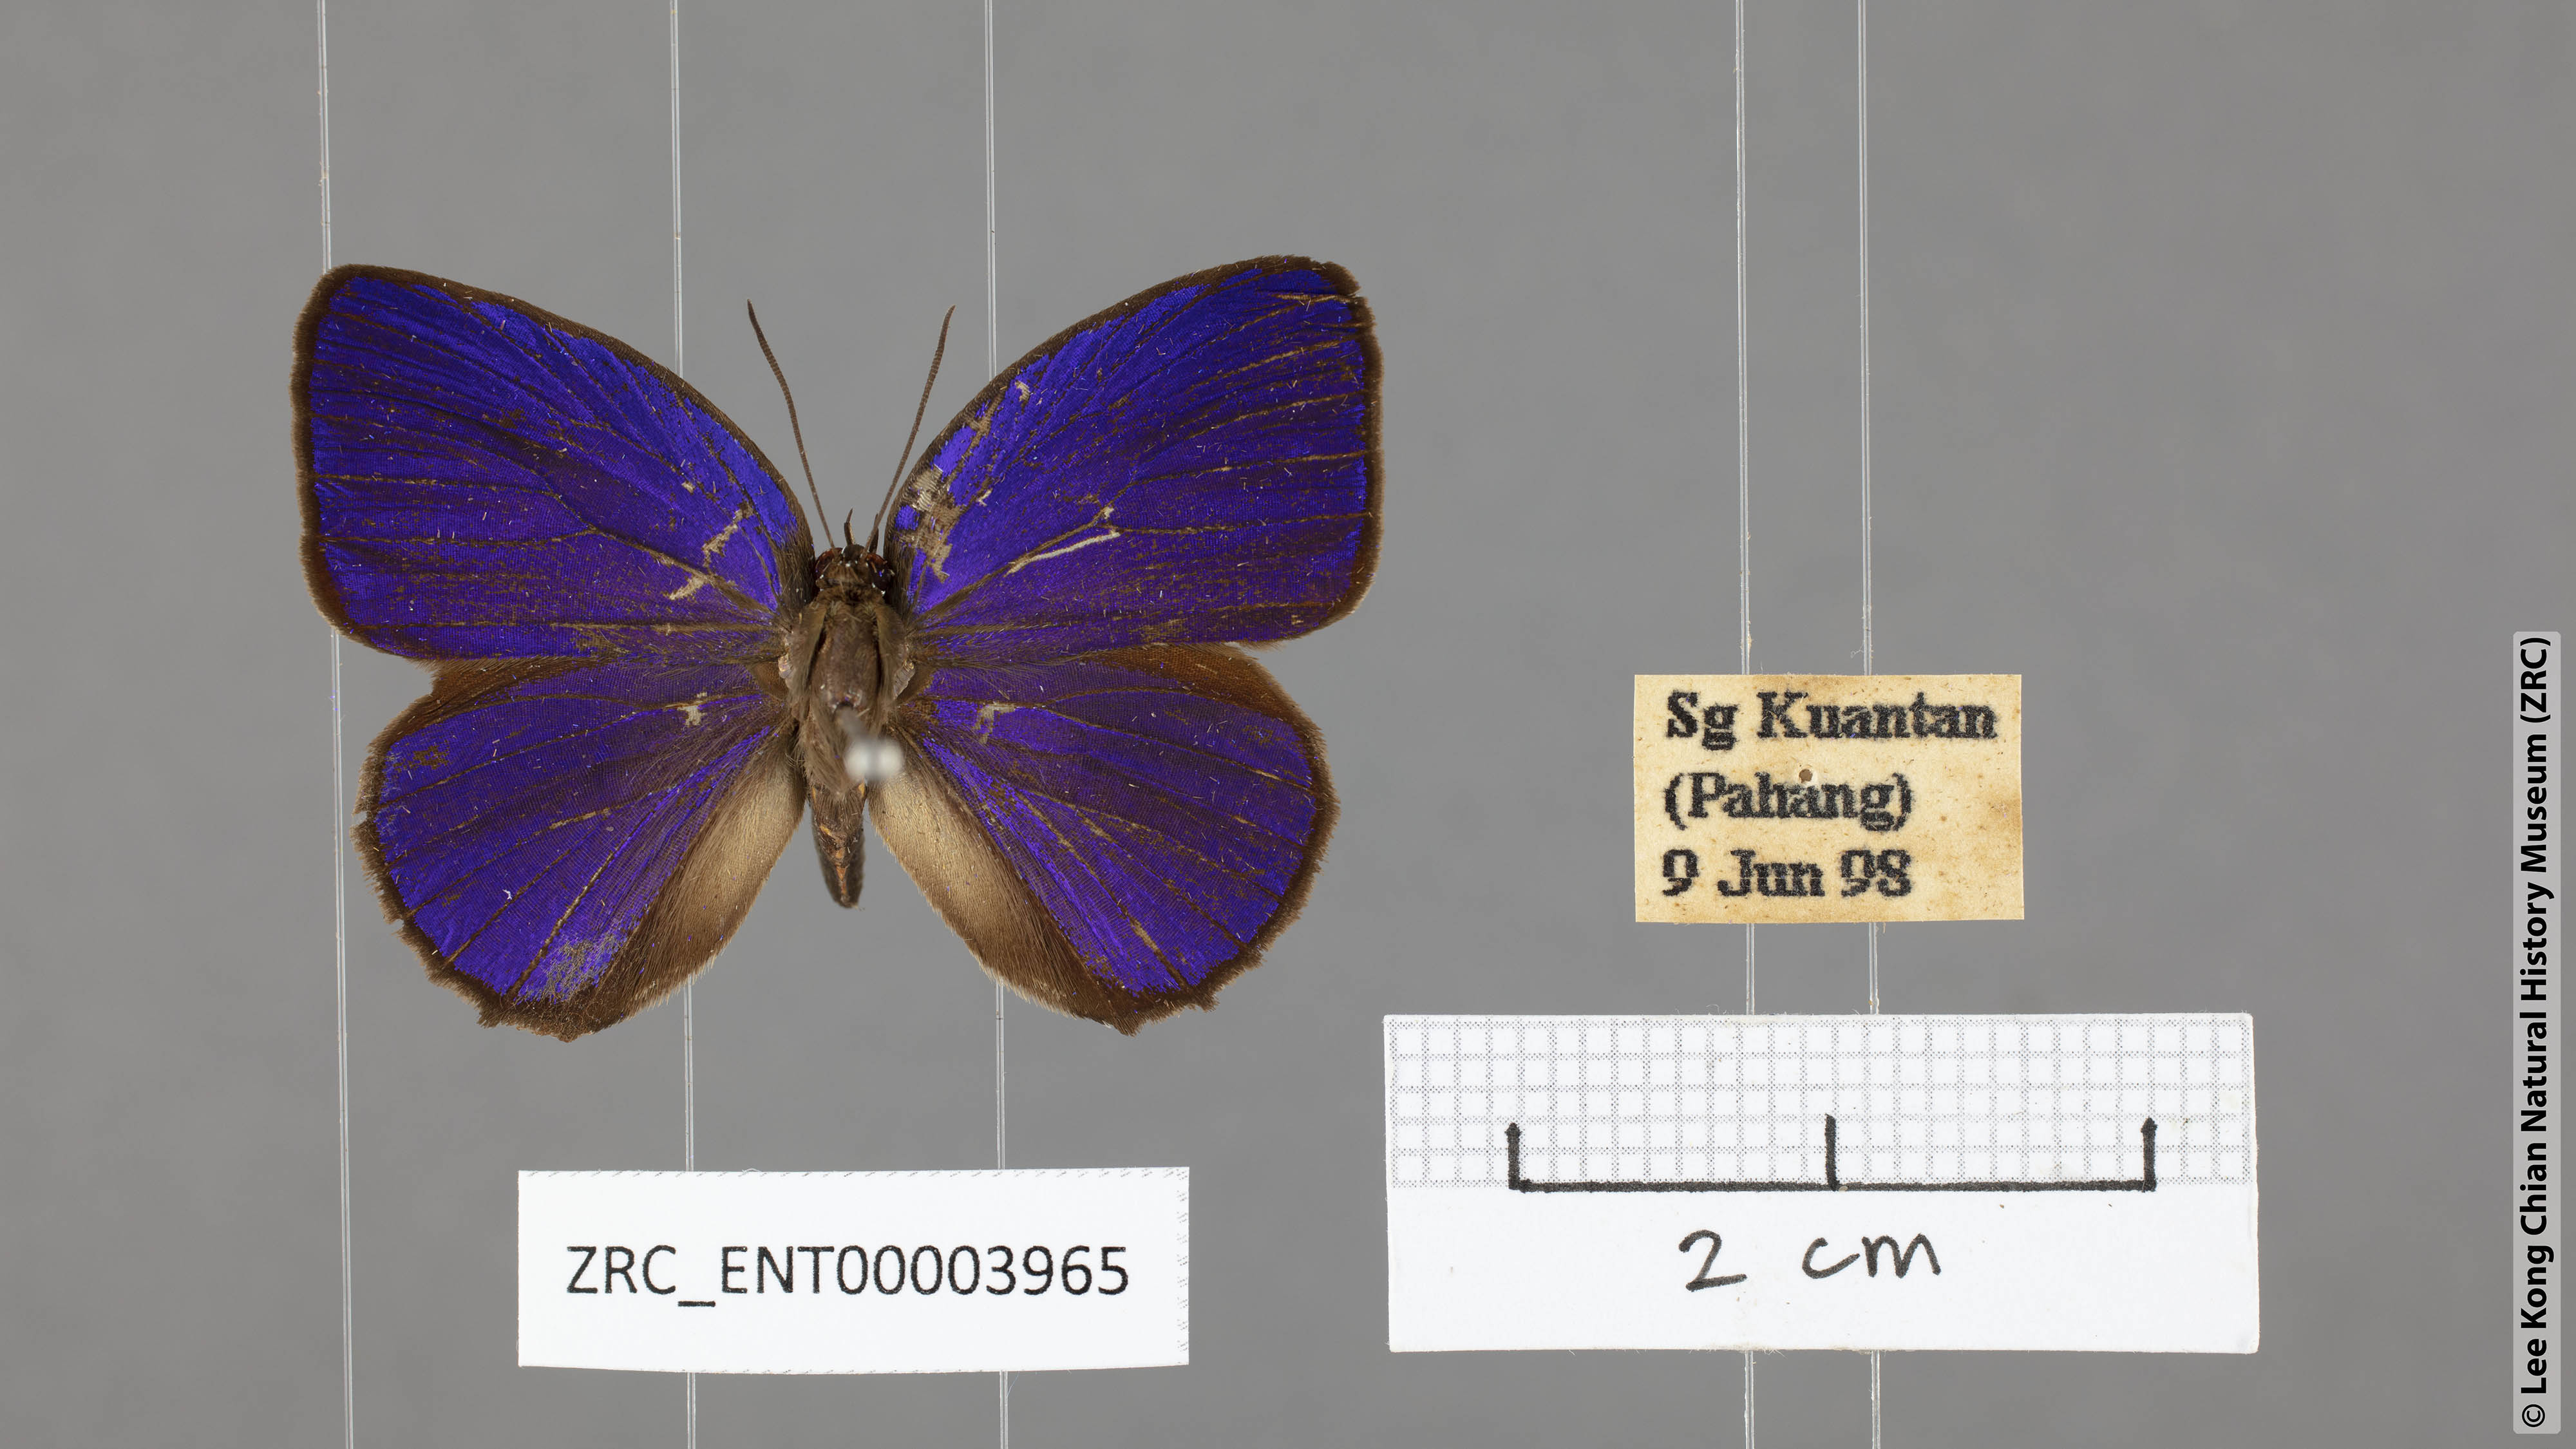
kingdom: Animalia
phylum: Arthropoda
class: Insecta
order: Lepidoptera
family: Lycaenidae
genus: Arhopala
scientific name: Arhopala hypomuta
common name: Violet oakblue
